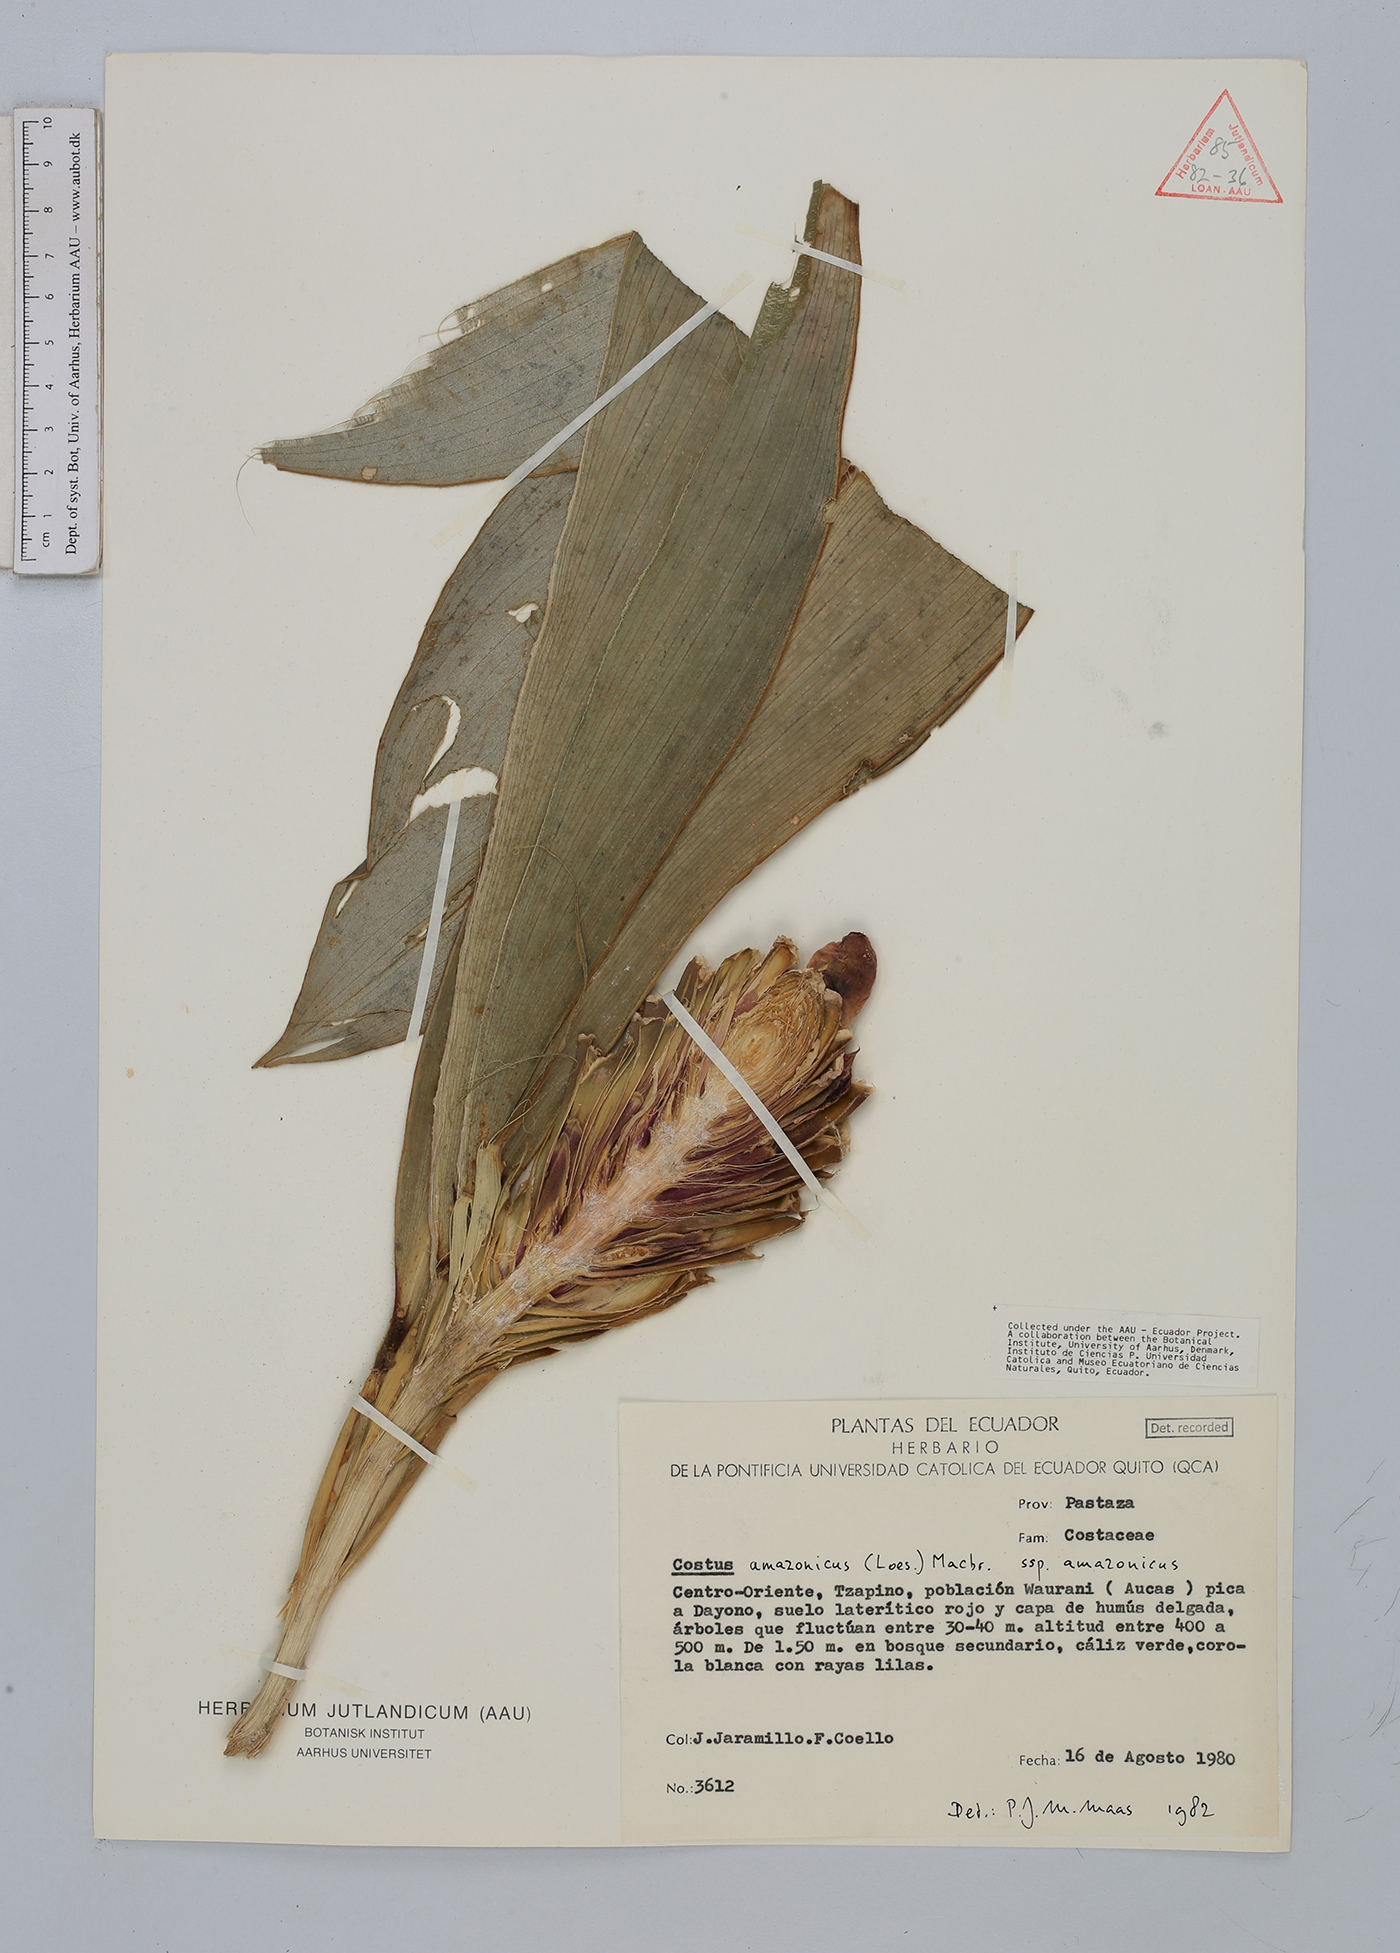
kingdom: Plantae
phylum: Tracheophyta
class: Liliopsida
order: Zingiberales
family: Costaceae
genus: Costus
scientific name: Costus amazonicus
